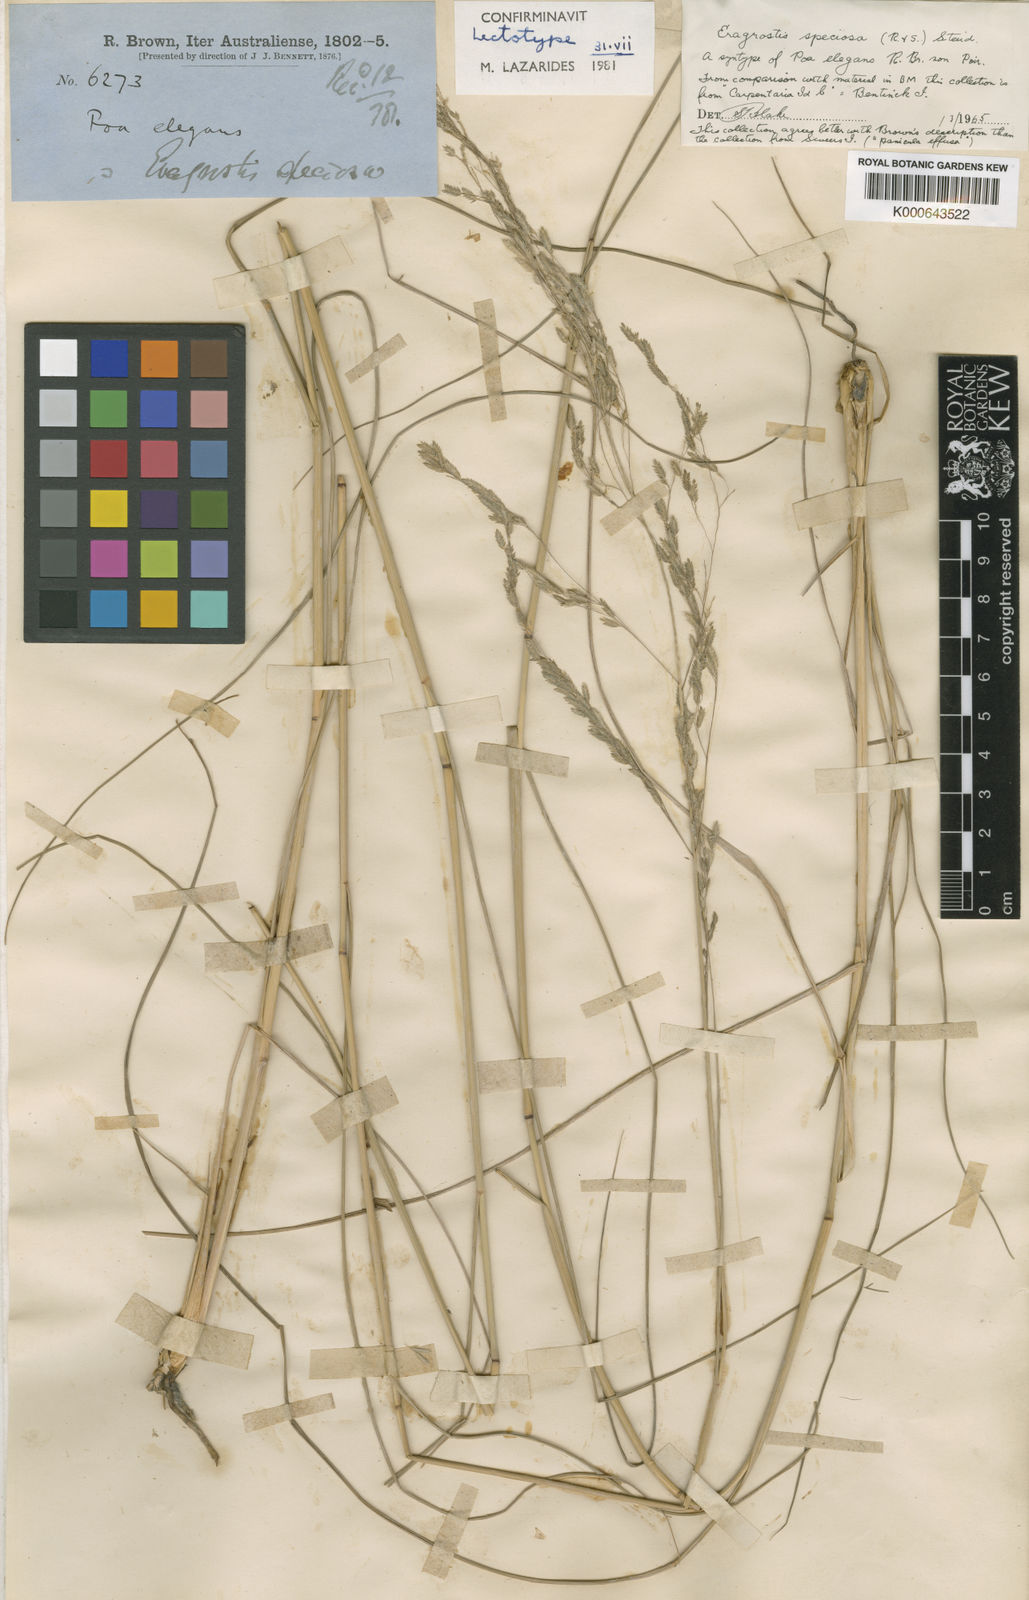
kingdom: Plantae
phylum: Tracheophyta
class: Liliopsida
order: Poales
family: Poaceae
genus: Eragrostis
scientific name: Eragrostis speciosa
